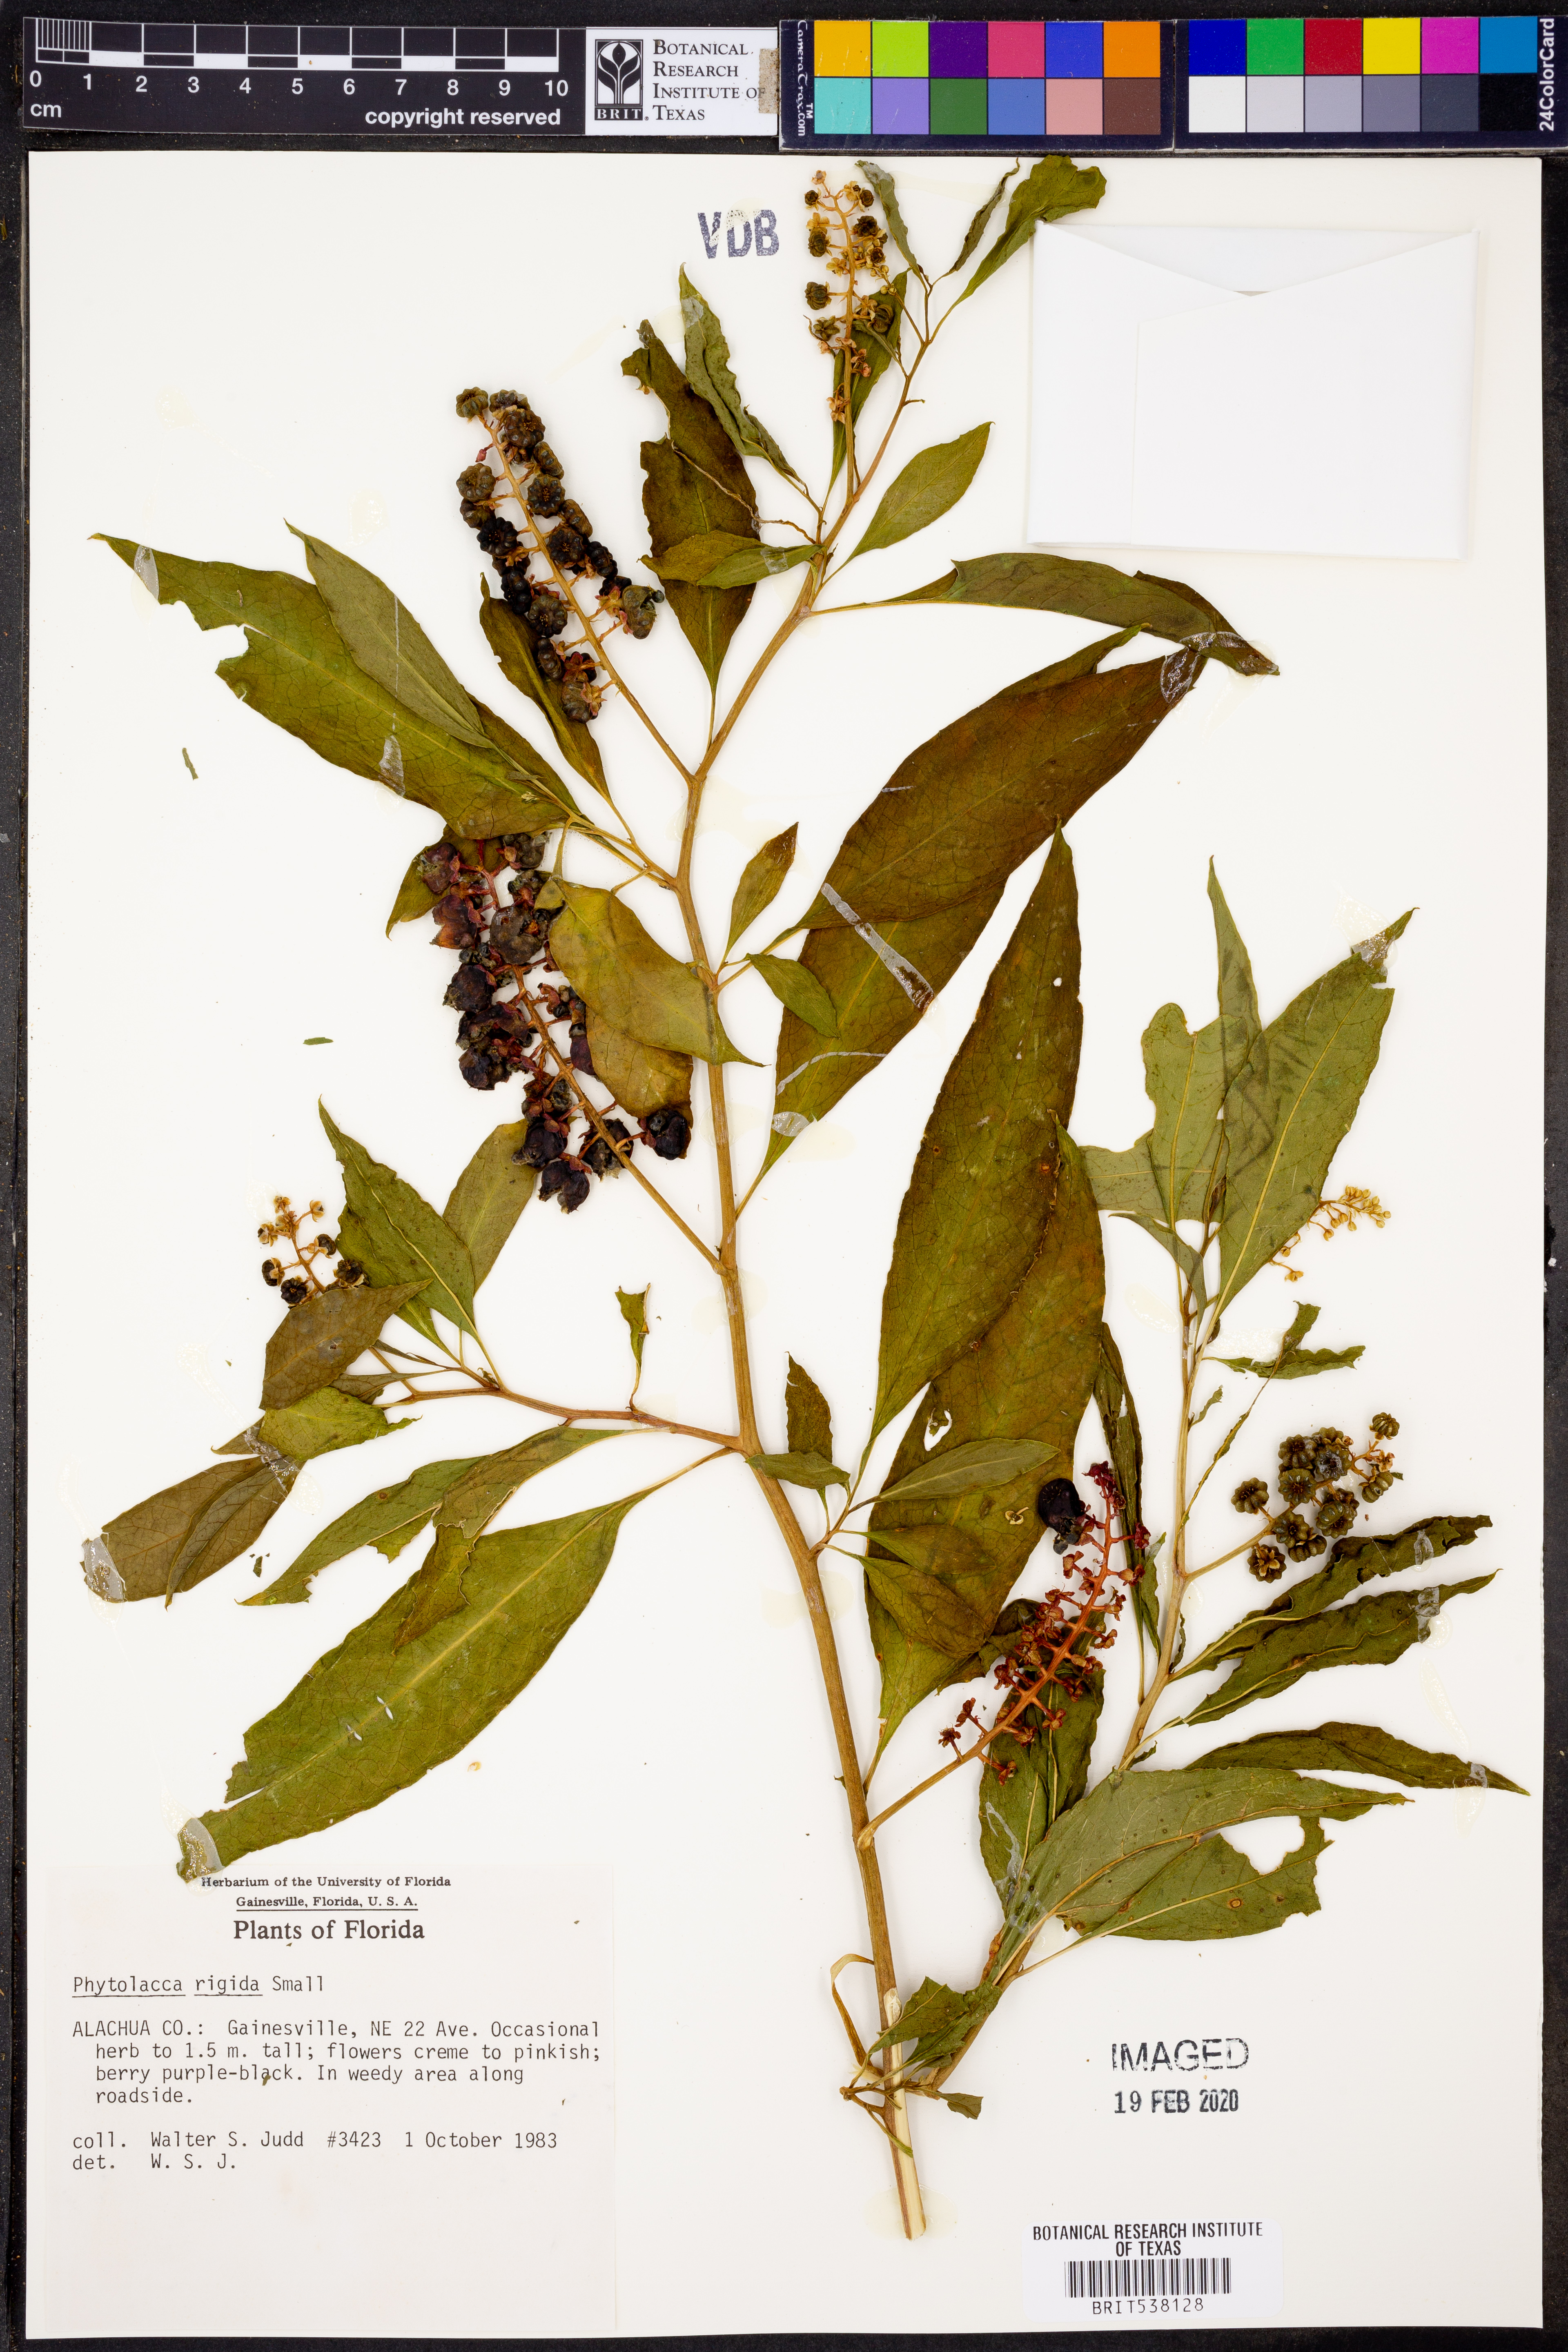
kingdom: Plantae
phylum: Tracheophyta
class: Magnoliopsida
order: Caryophyllales
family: Phytolaccaceae
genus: Phytolacca
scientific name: Phytolacca americana
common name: American pokeweed
